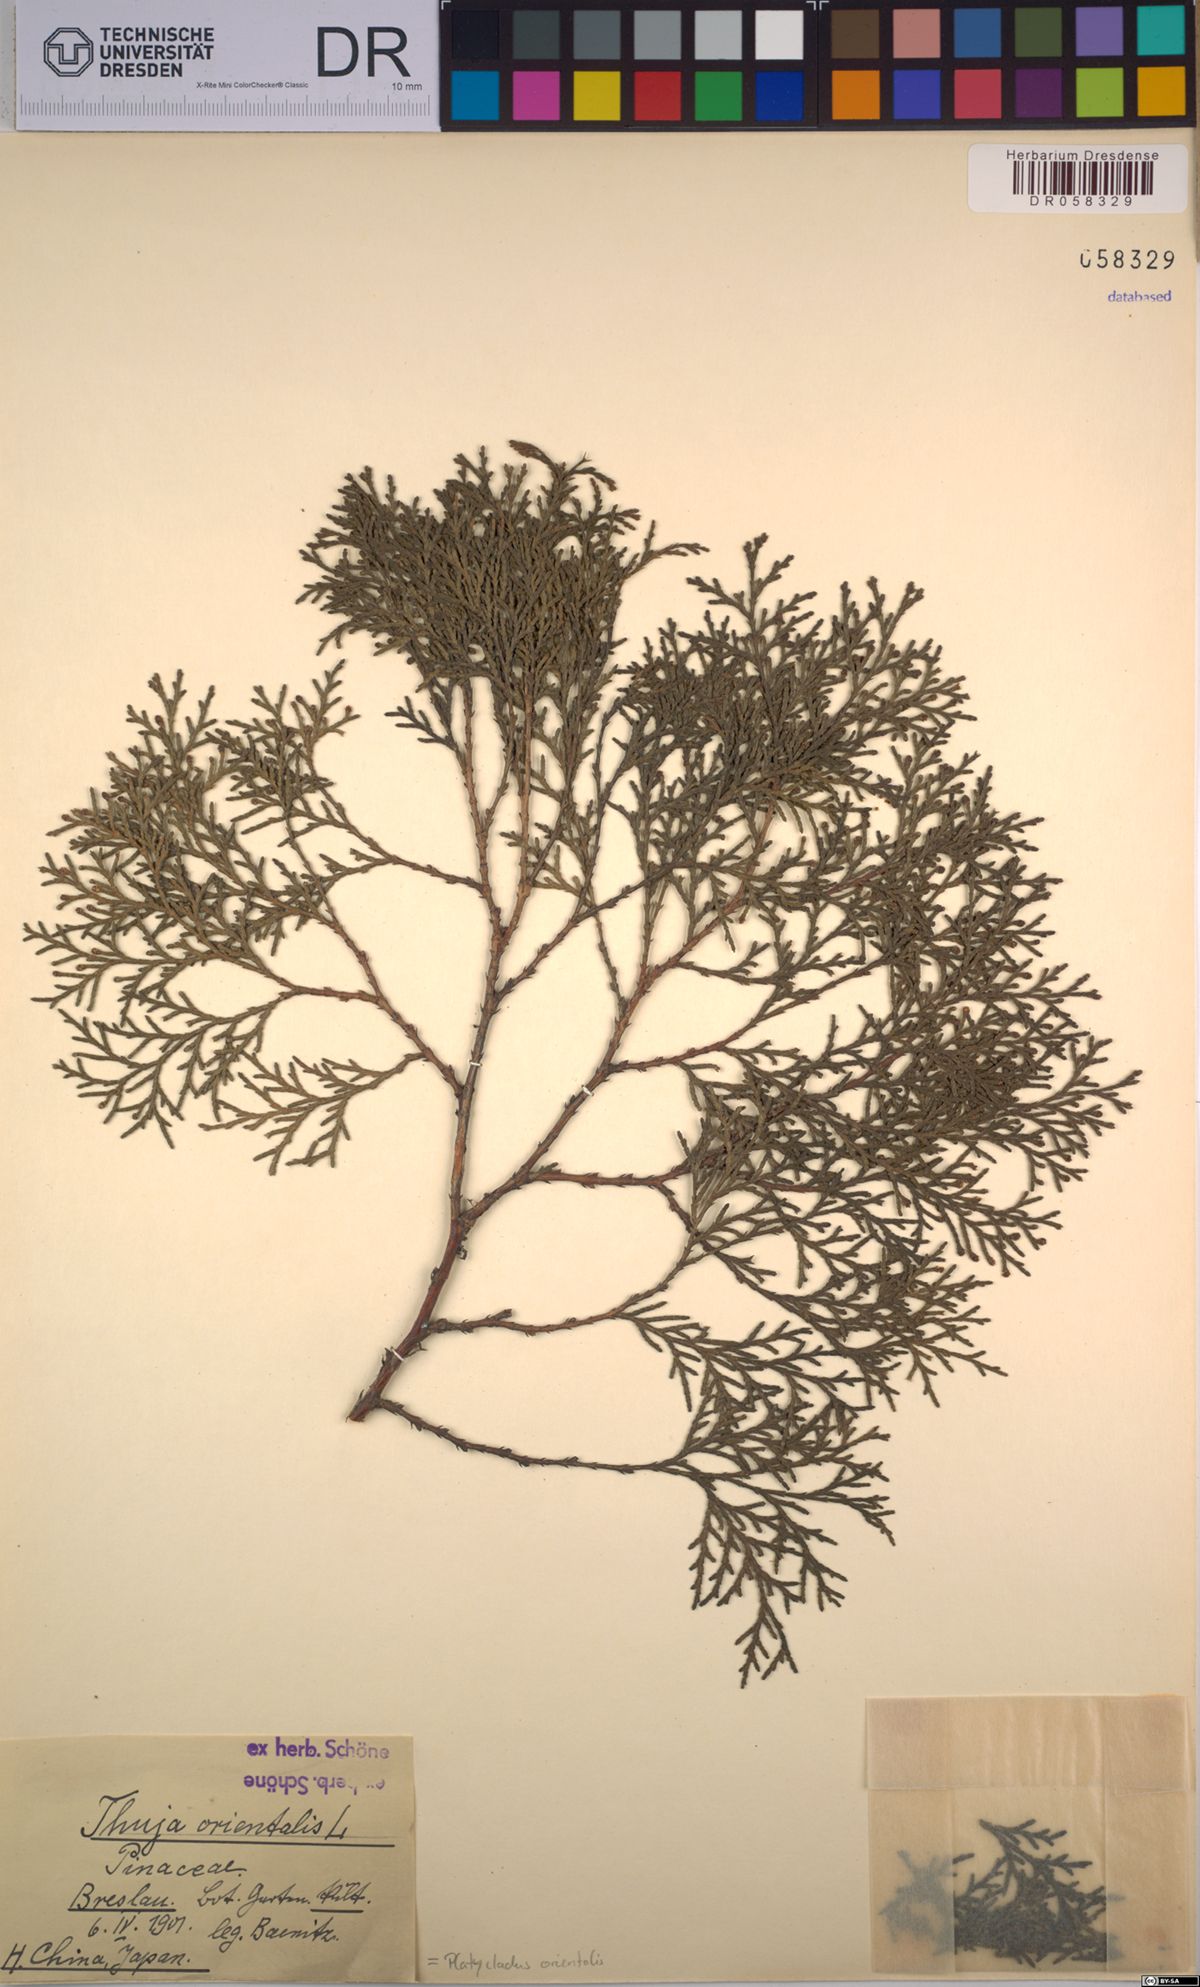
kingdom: Plantae
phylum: Tracheophyta
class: Pinopsida
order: Pinales
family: Cupressaceae
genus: Platycladus
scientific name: Platycladus orientalis
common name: Chinese thuja
